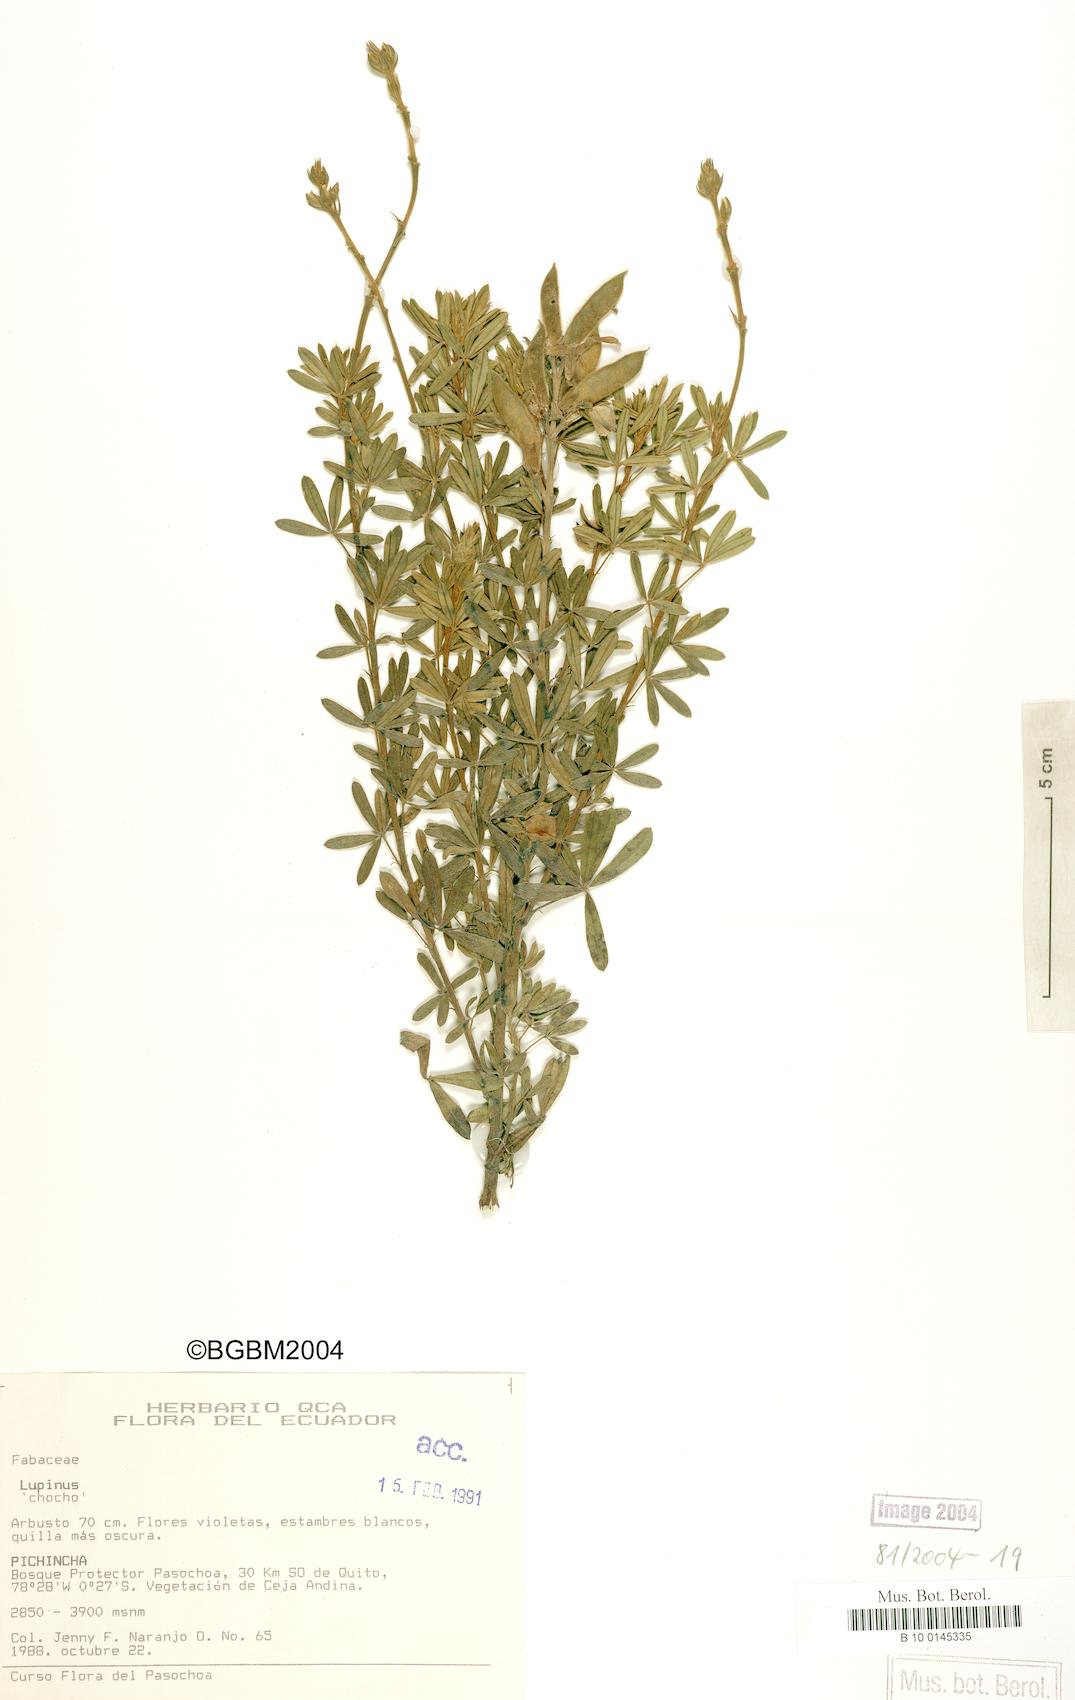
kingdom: Plantae
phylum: Tracheophyta
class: Magnoliopsida
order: Fabales
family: Fabaceae
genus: Lupinus
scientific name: Lupinus
